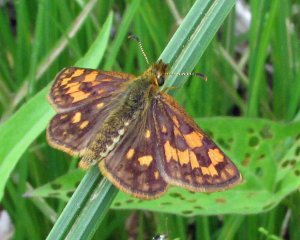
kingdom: Animalia
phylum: Arthropoda
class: Insecta
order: Lepidoptera
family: Hesperiidae
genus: Carterocephalus
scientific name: Carterocephalus palaemon
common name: Chequered Skipper
